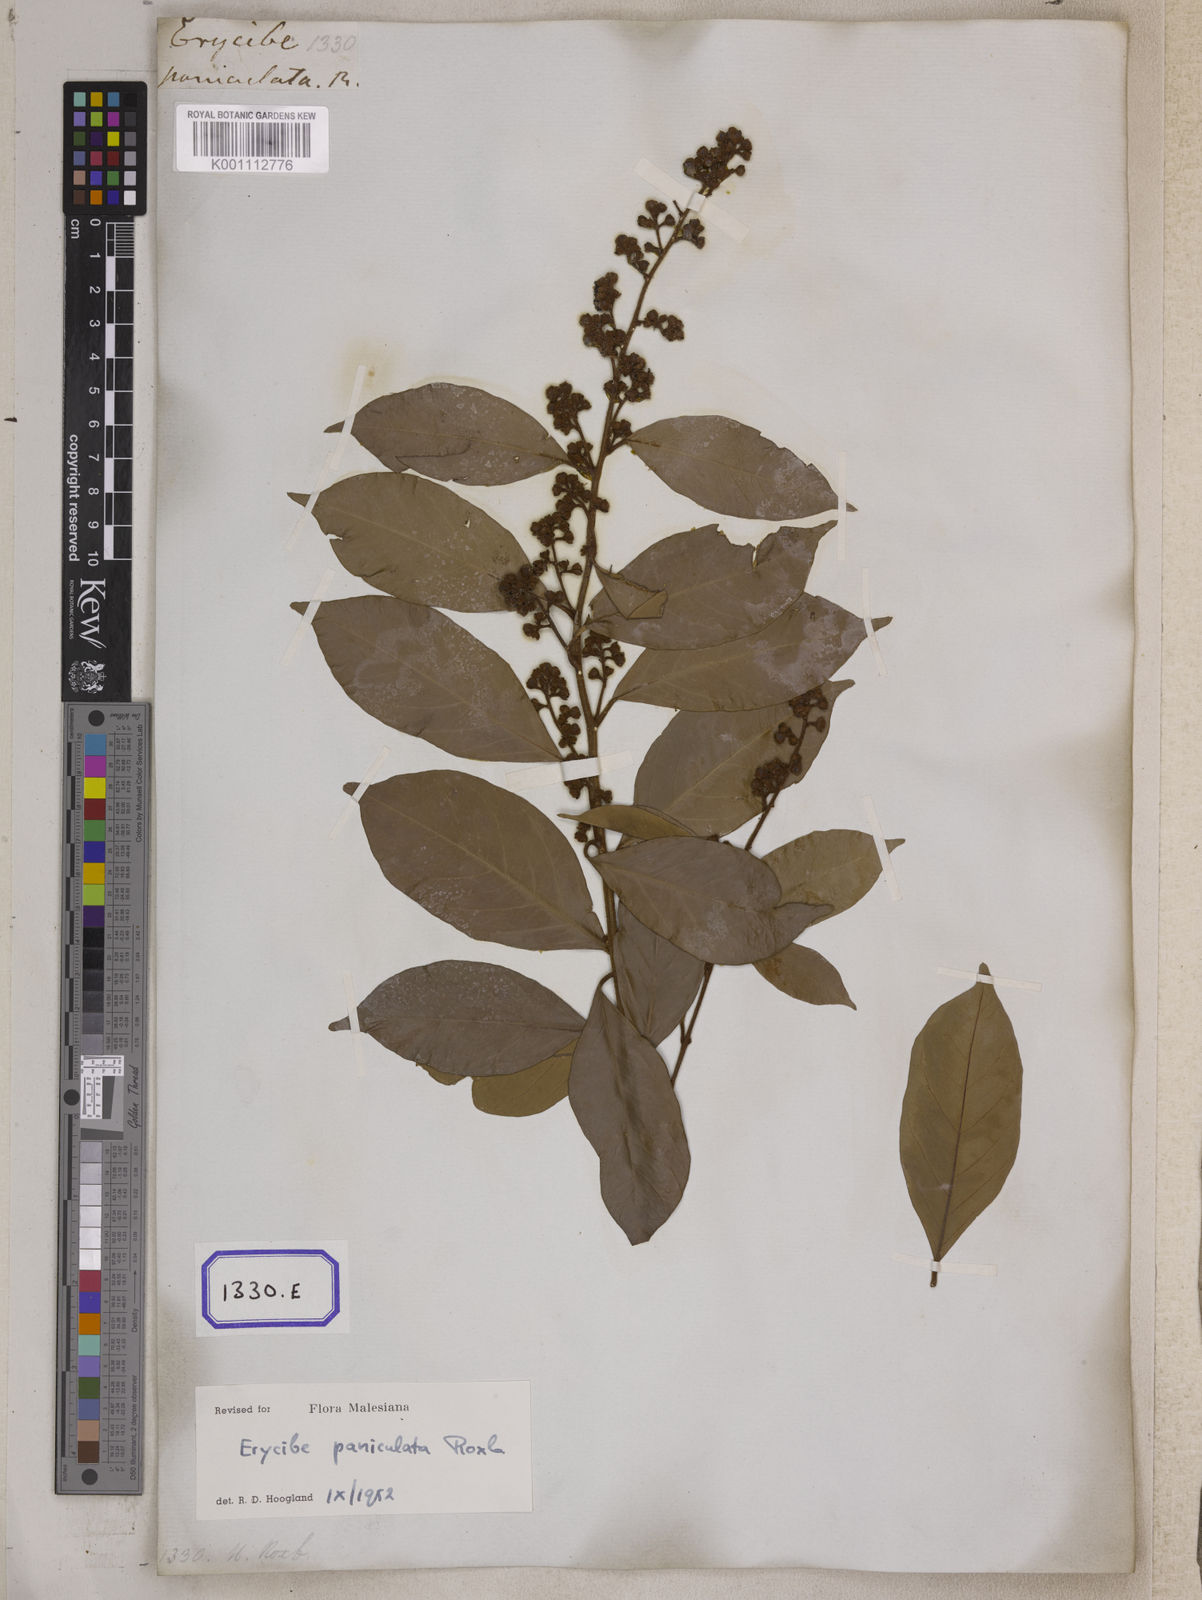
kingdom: Plantae
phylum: Tracheophyta
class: Magnoliopsida
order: Solanales
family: Convolvulaceae
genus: Erycibe
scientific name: Erycibe paniculata
